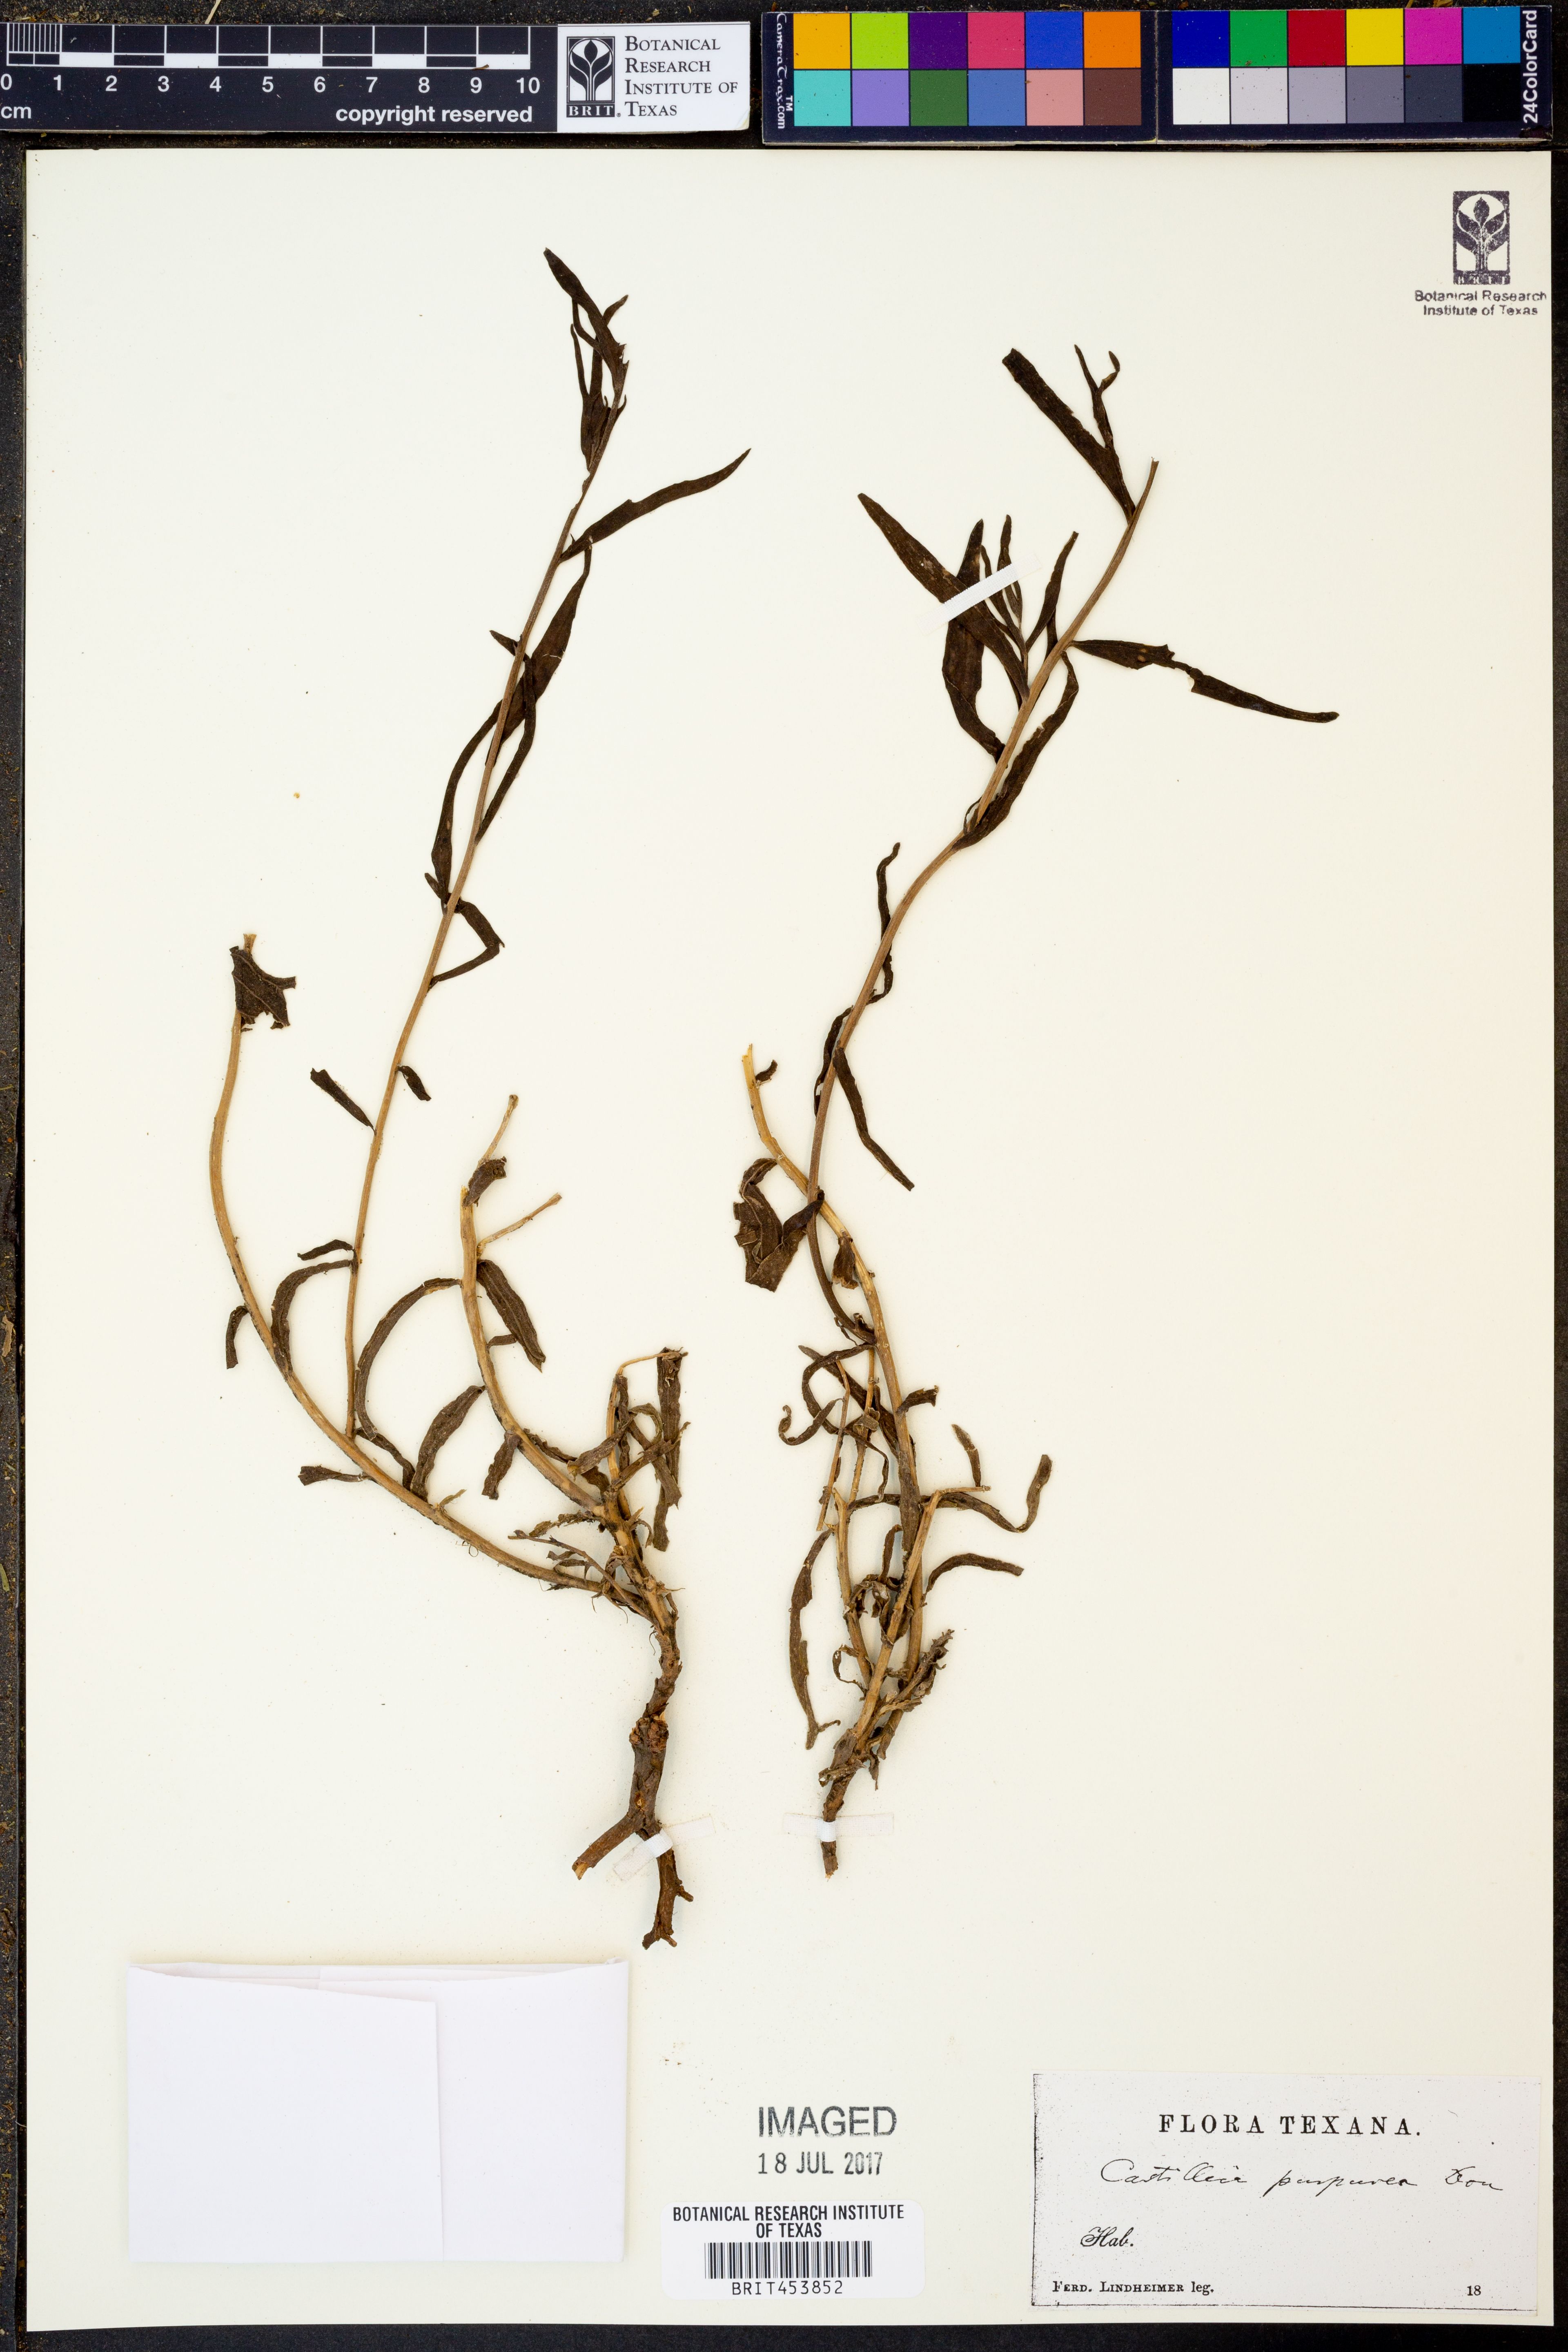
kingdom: Plantae
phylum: Tracheophyta
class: Magnoliopsida
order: Lamiales
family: Orobanchaceae
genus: Castilleja
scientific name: Castilleja purpurea
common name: Plains paintbrush
